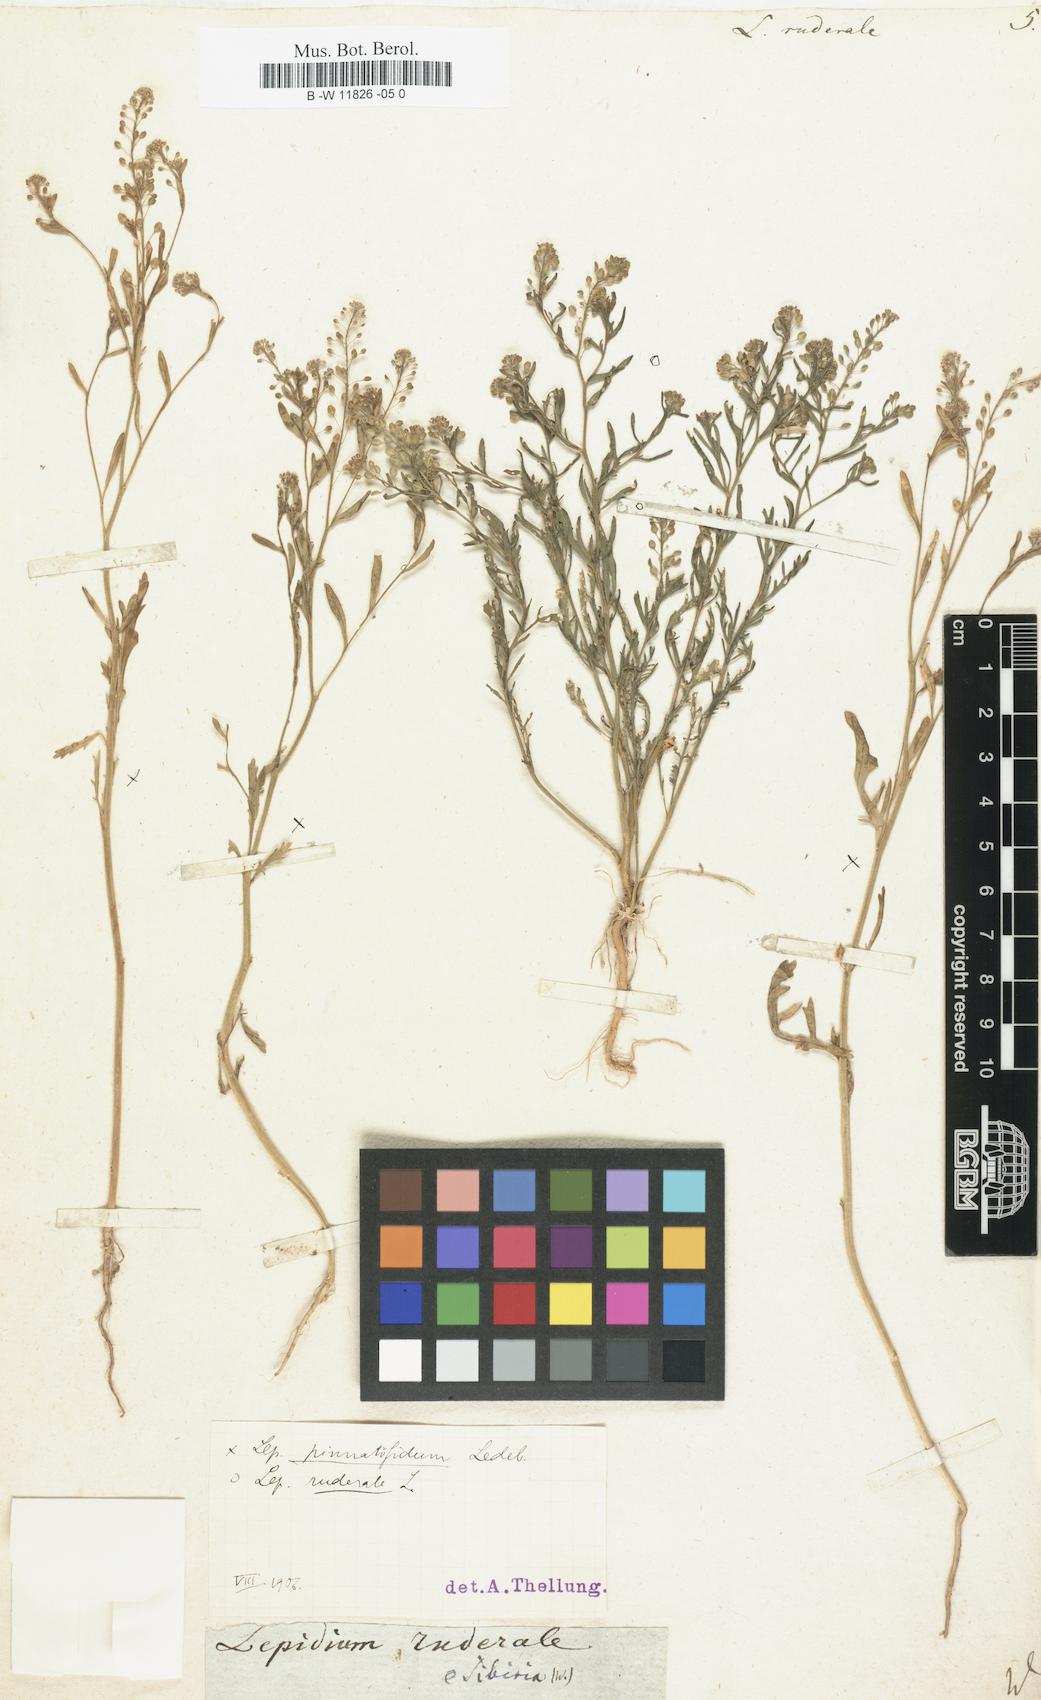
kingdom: Plantae
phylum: Tracheophyta
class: Magnoliopsida
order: Brassicales
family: Brassicaceae
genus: Lepidium
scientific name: Lepidium ruderale
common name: Narrow-leaved pepperwort
